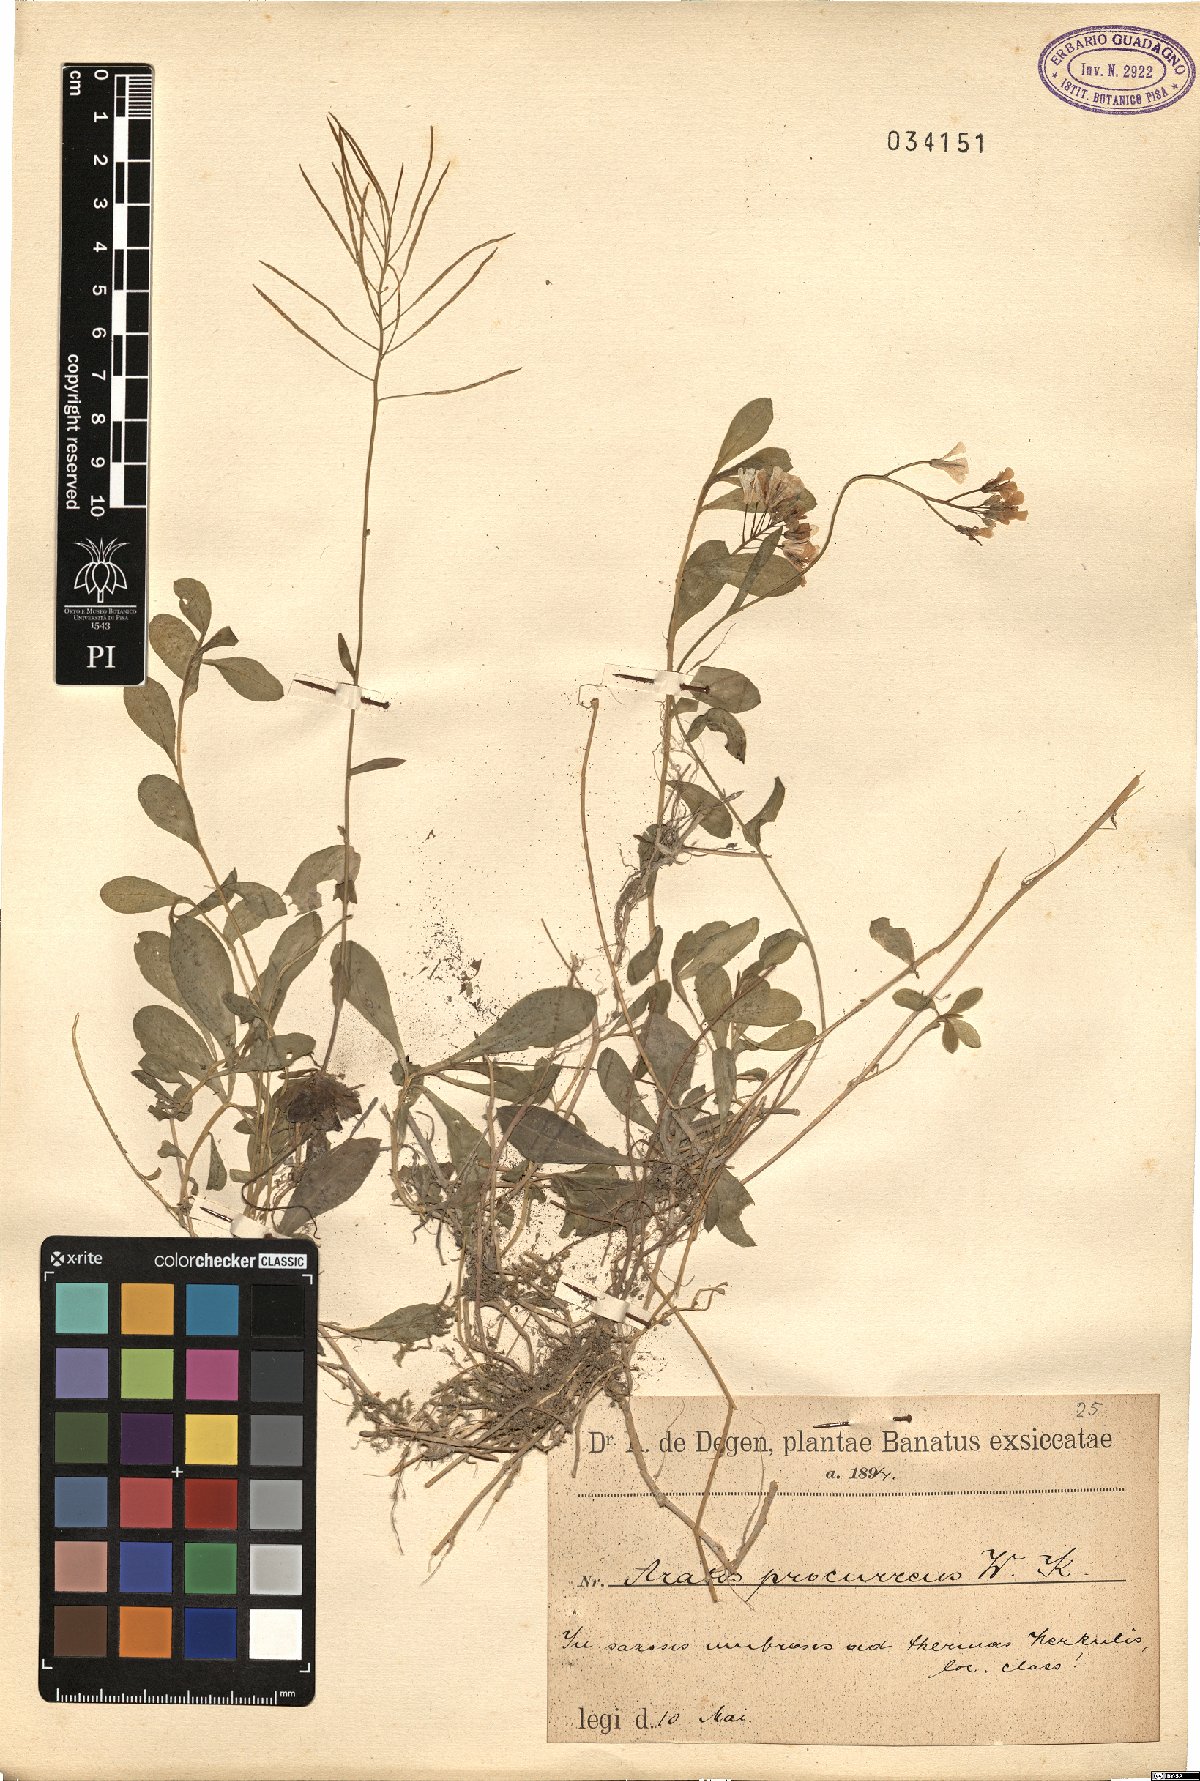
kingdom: Plantae
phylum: Tracheophyta
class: Magnoliopsida
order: Brassicales
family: Brassicaceae
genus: Arabis
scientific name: Arabis procurrens
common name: Running rockcress
